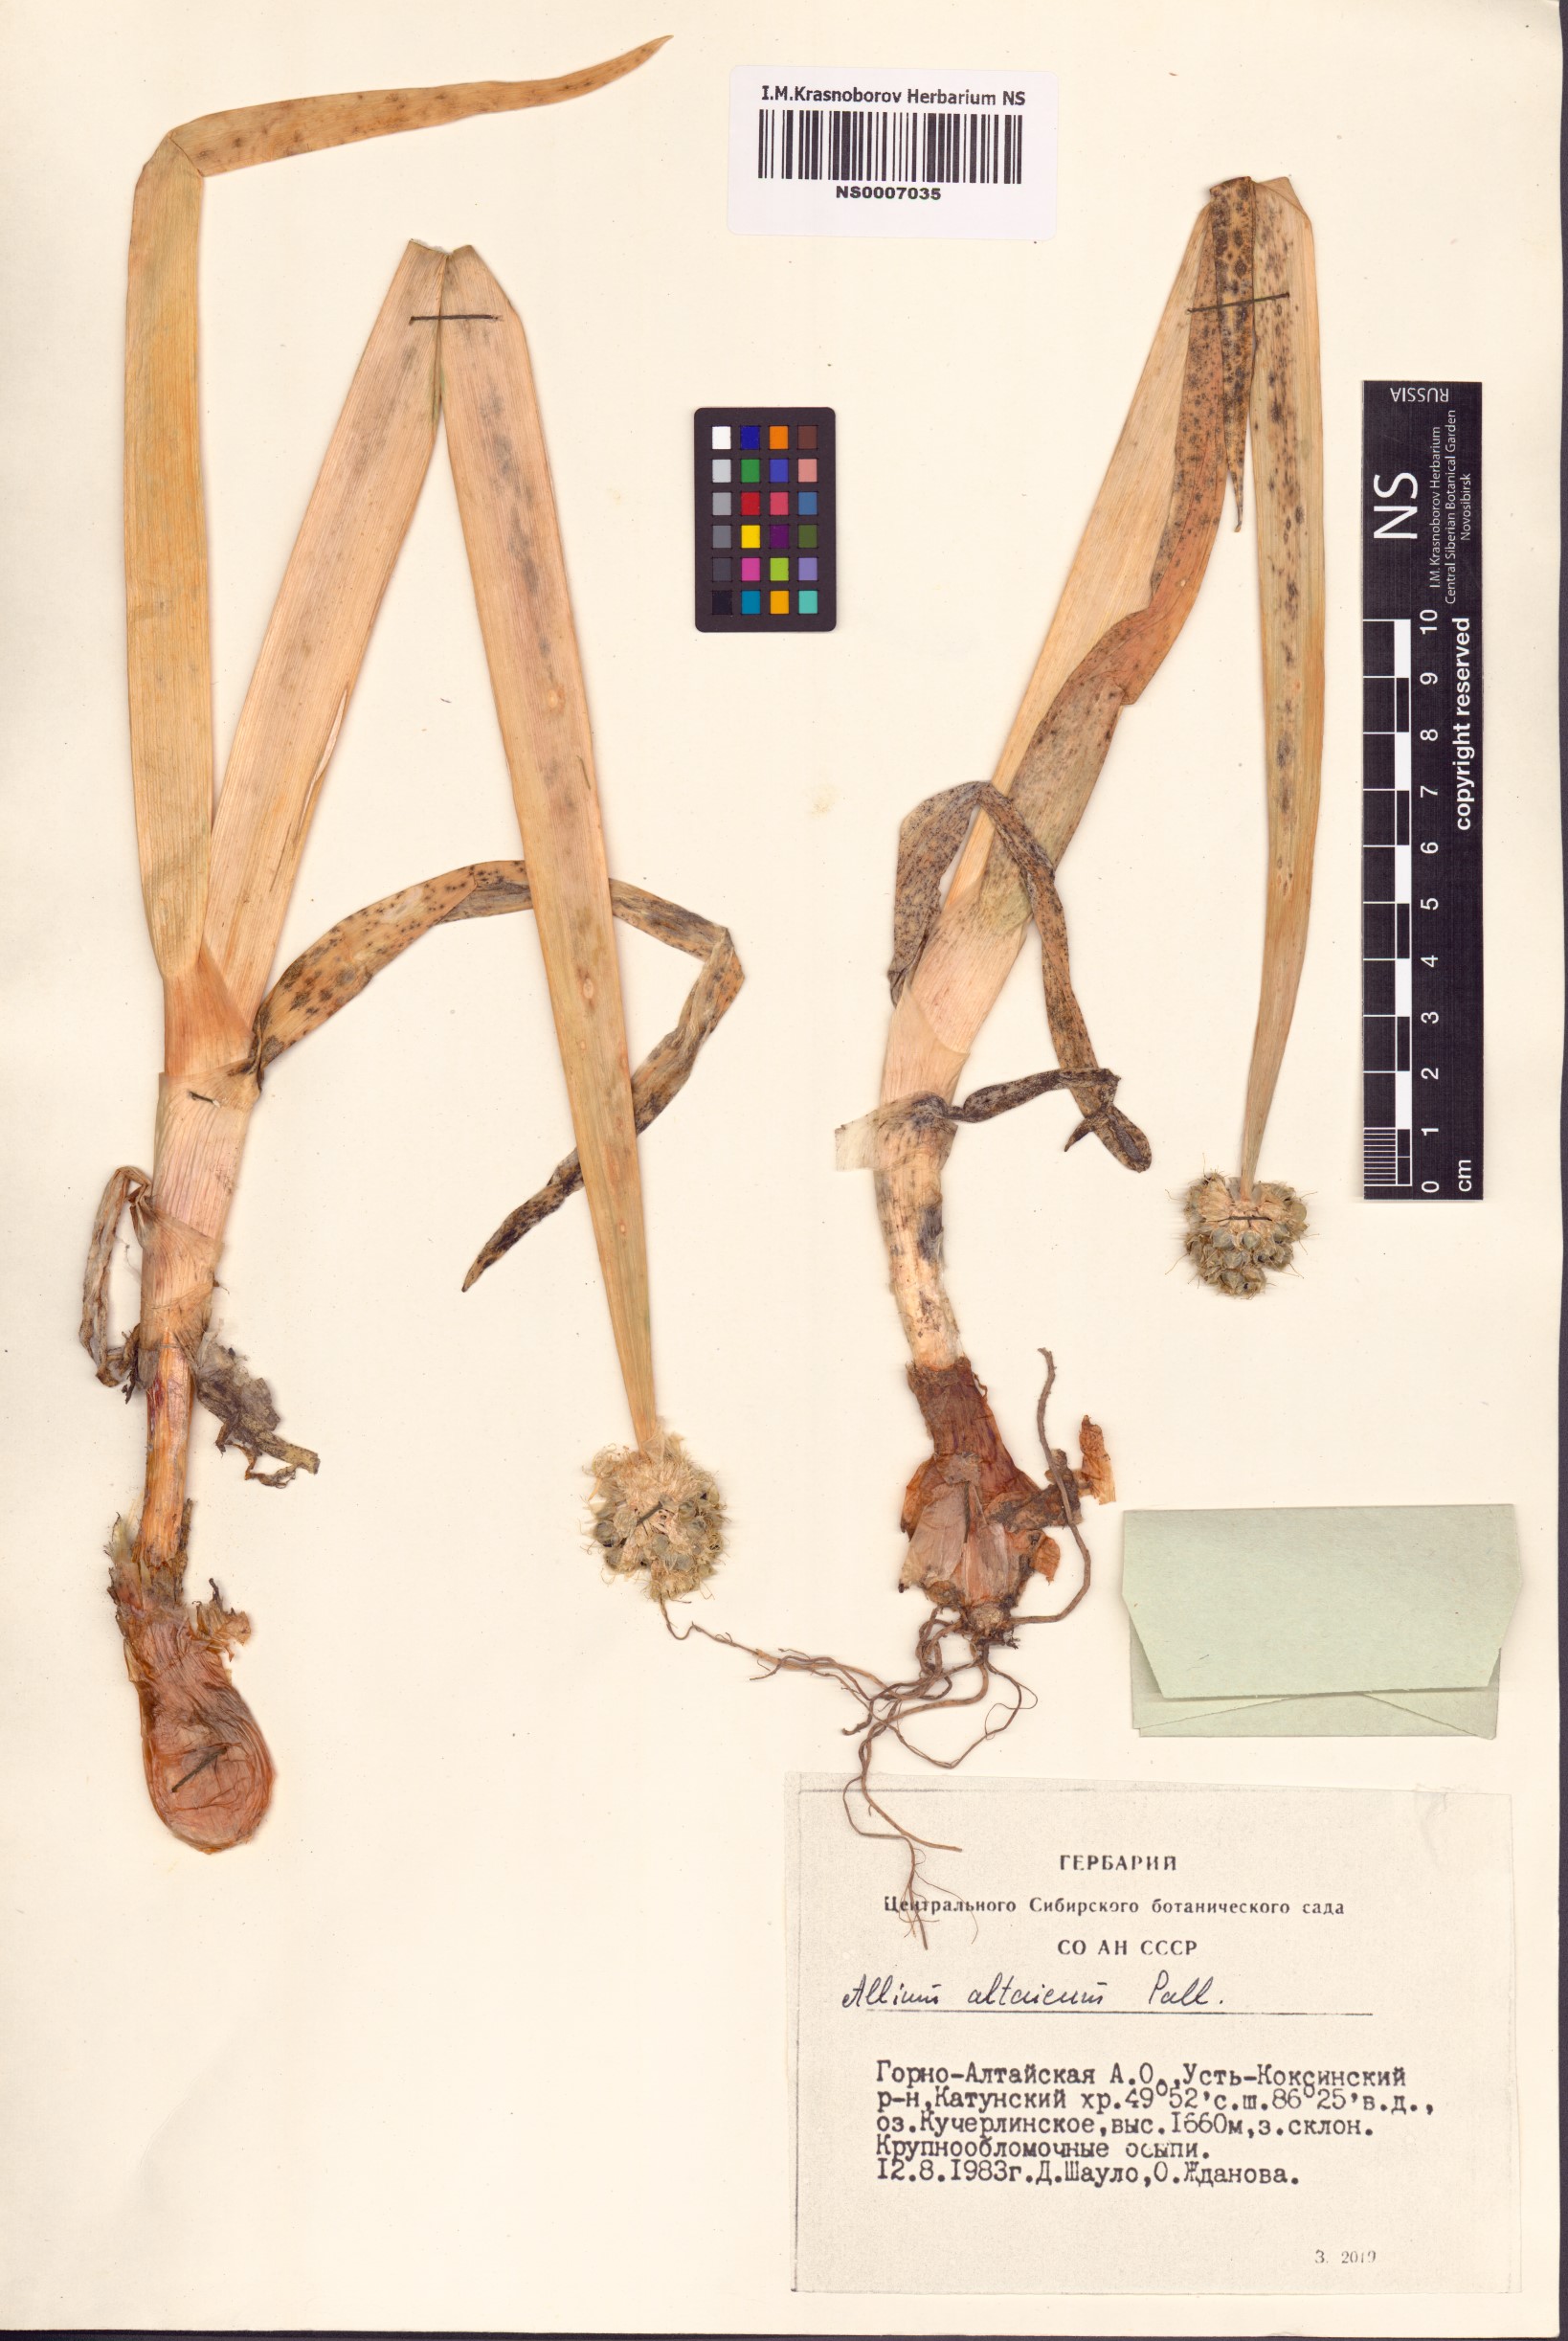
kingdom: Plantae
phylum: Tracheophyta
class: Liliopsida
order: Asparagales
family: Amaryllidaceae
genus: Allium
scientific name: Allium altaicum
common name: Altai onion
